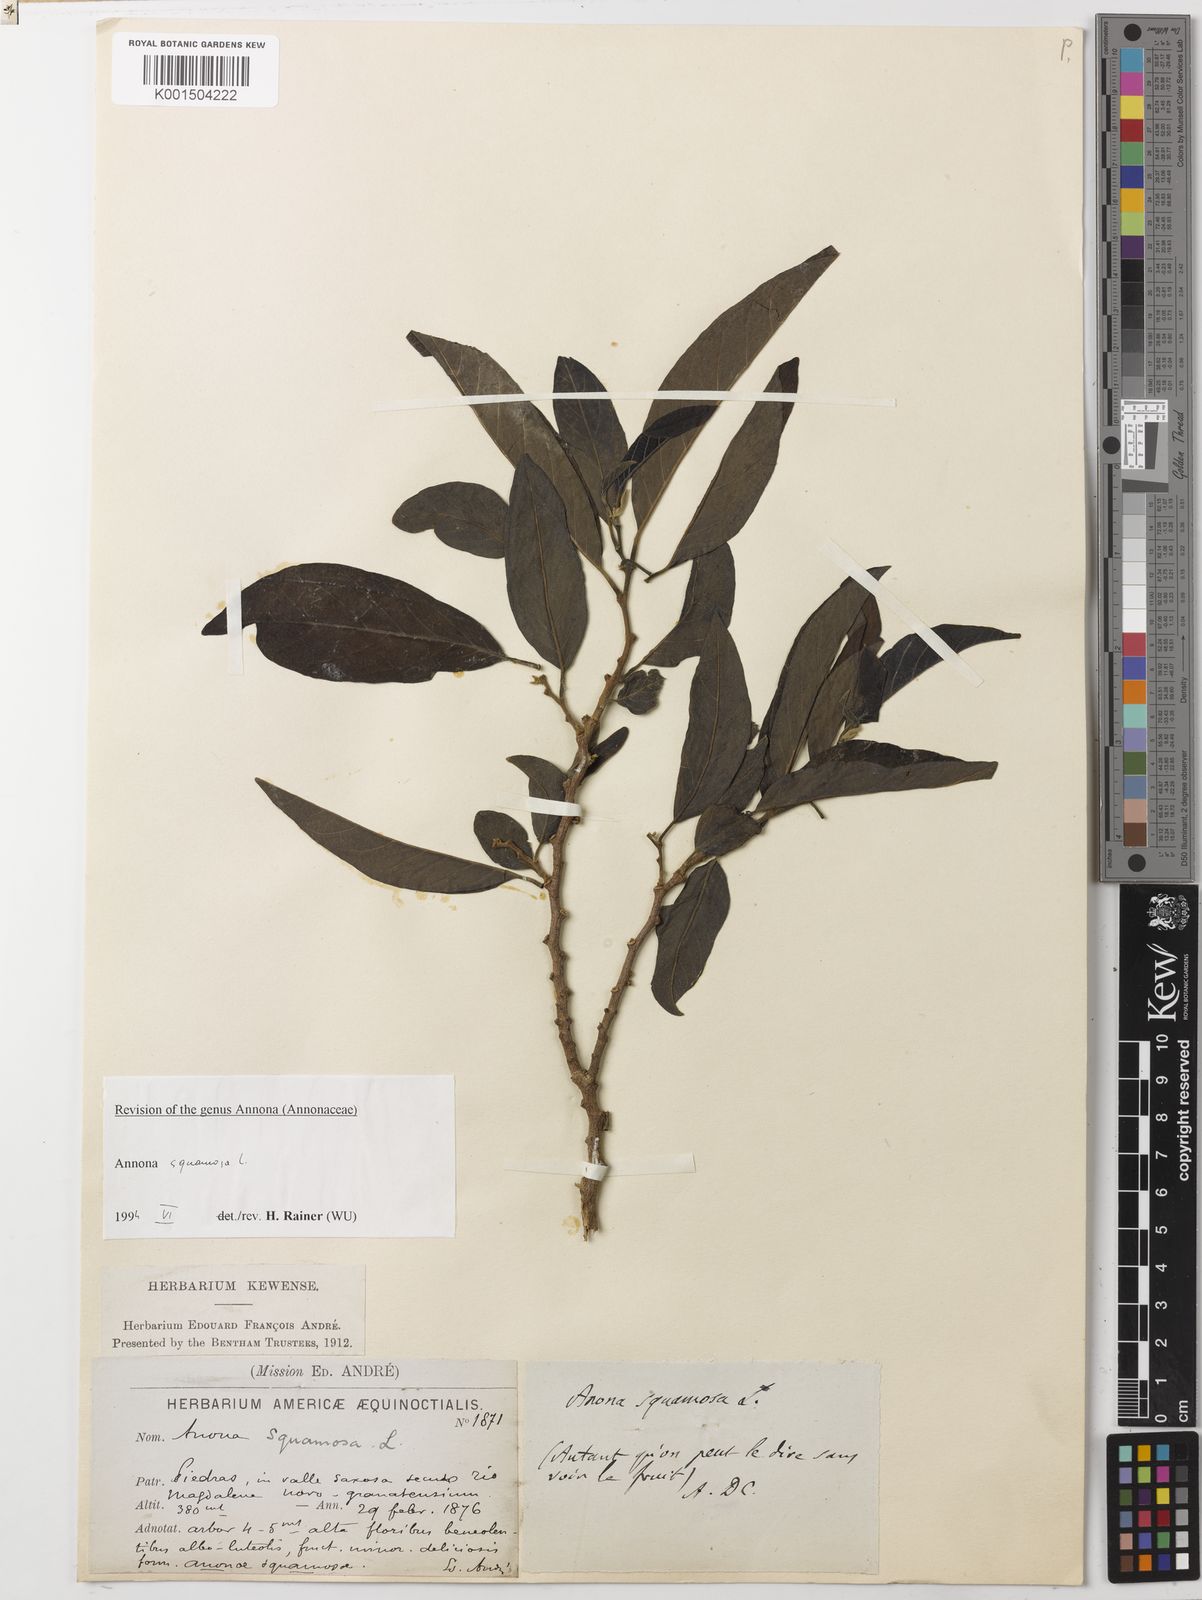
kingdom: Plantae
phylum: Tracheophyta
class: Magnoliopsida
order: Magnoliales
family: Annonaceae
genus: Annona
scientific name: Annona squamosa
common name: Custard-apple
